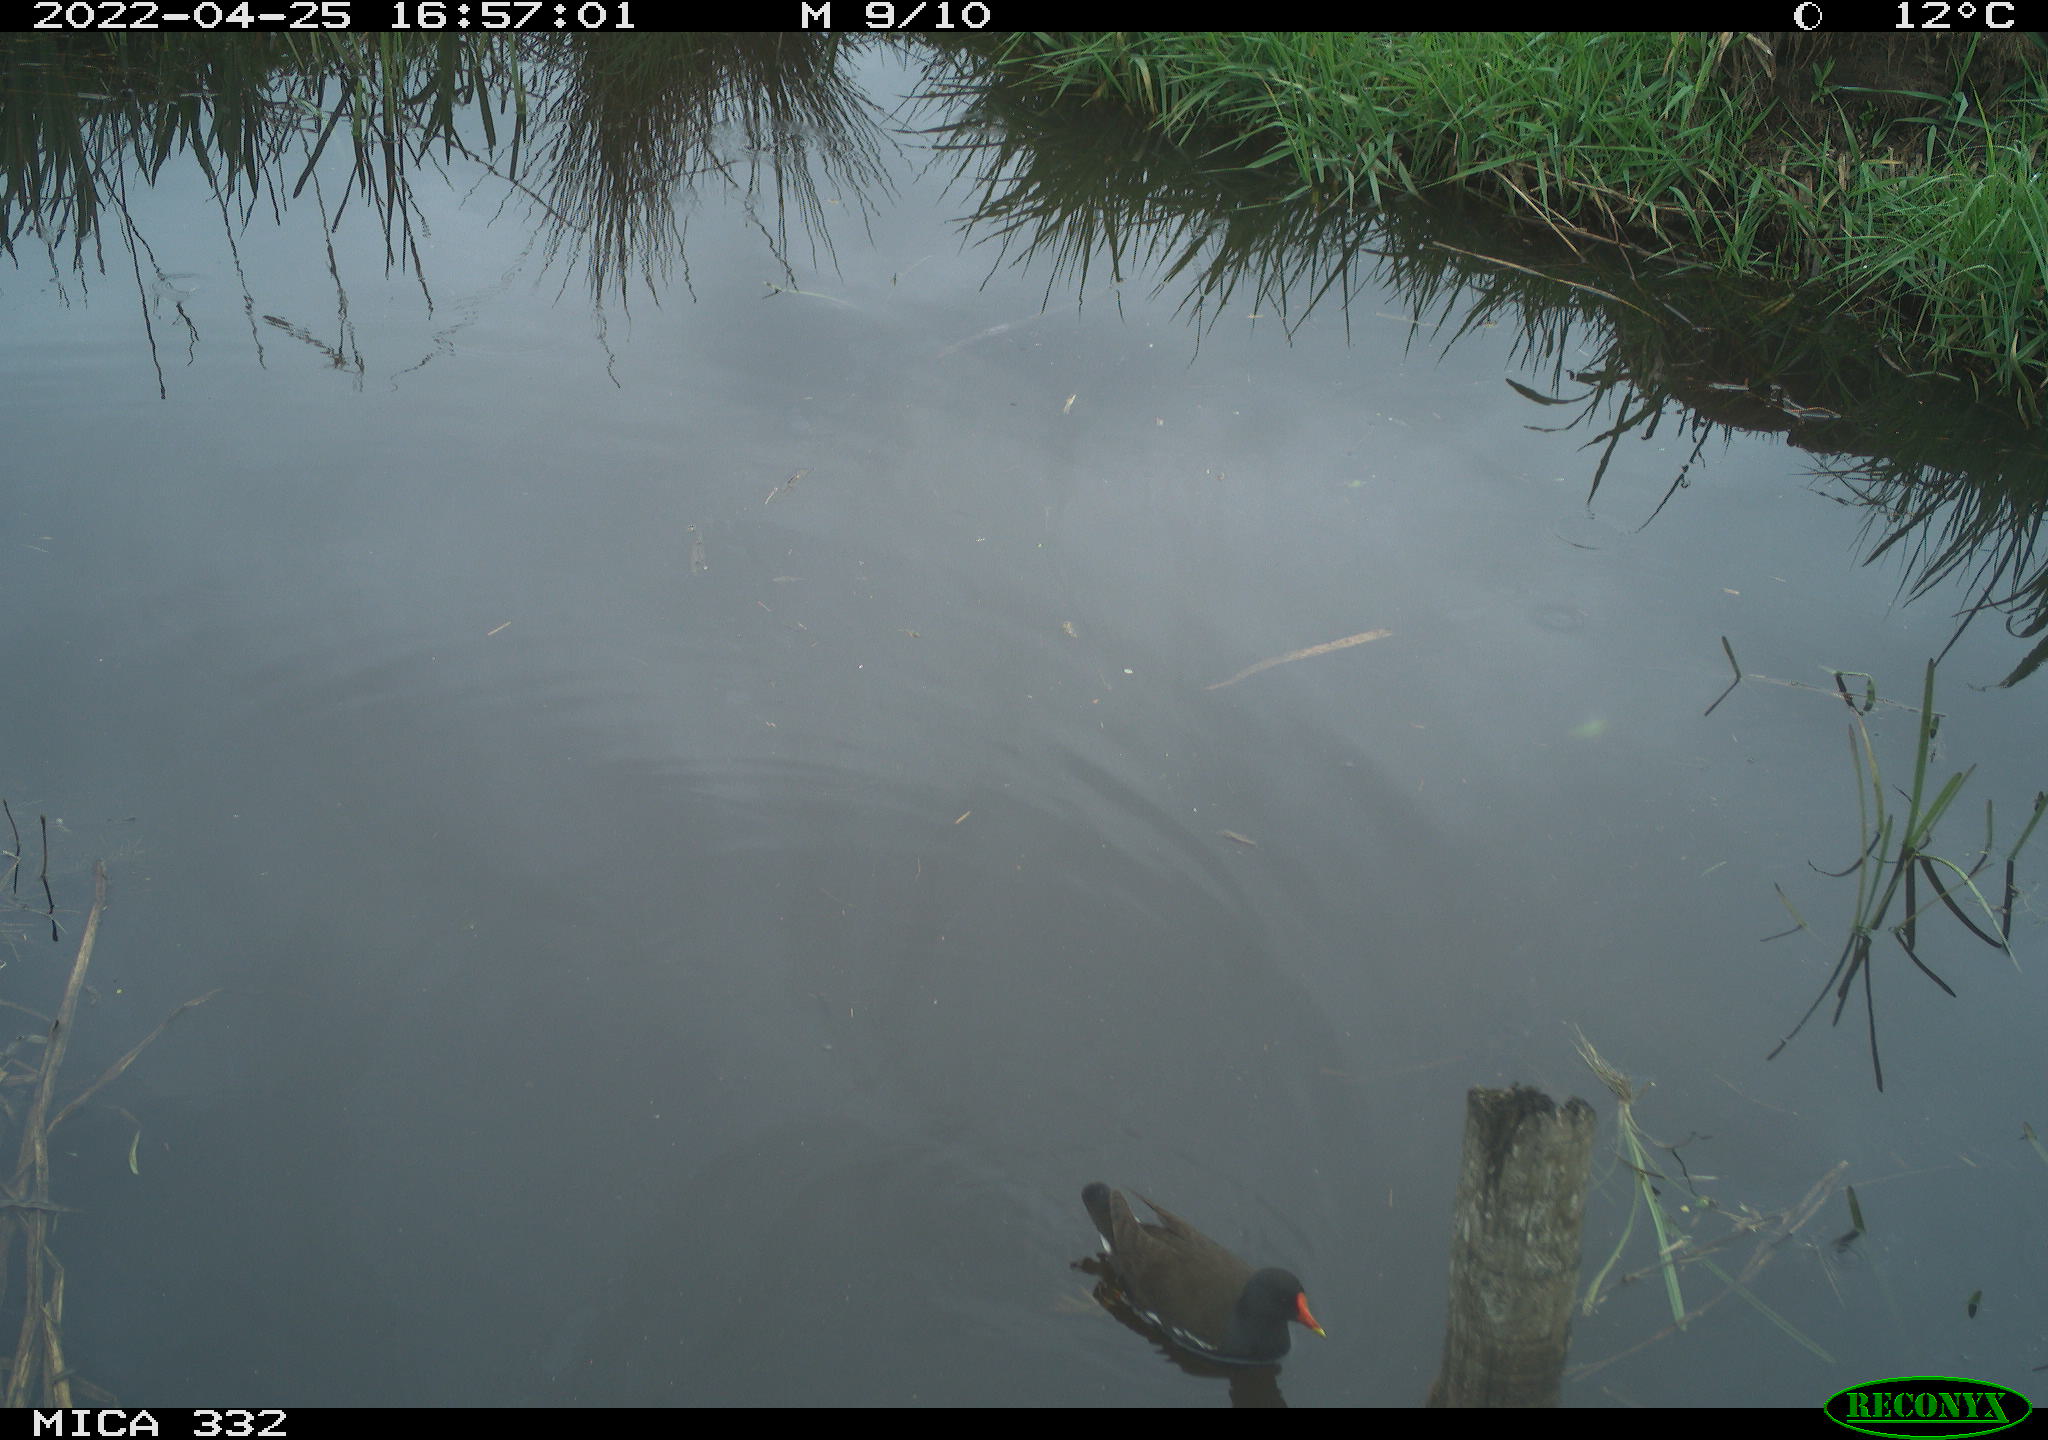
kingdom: Animalia
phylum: Chordata
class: Aves
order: Gruiformes
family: Rallidae
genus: Gallinula
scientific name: Gallinula chloropus
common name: Common moorhen
